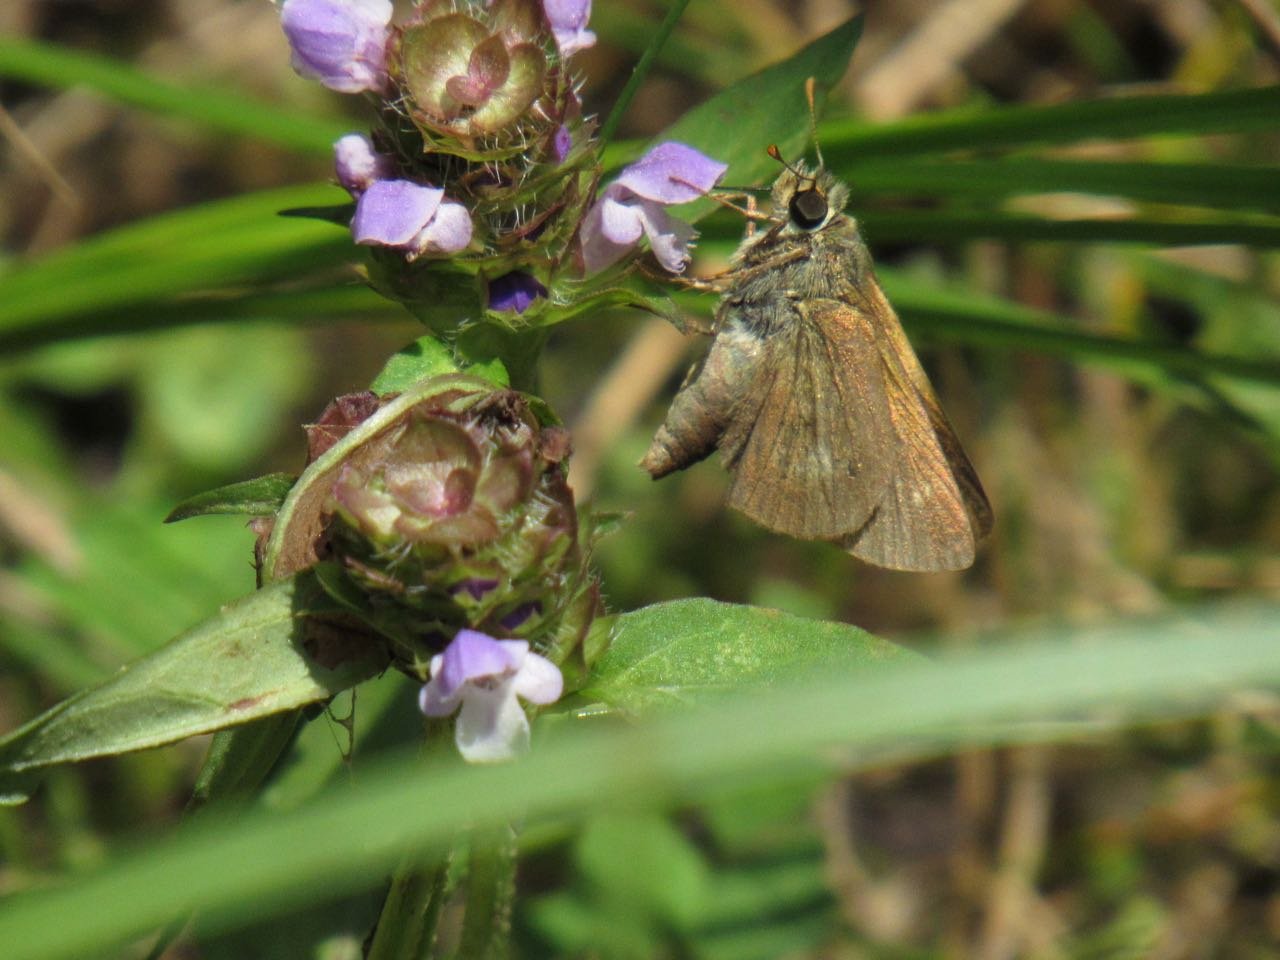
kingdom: Animalia
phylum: Arthropoda
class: Insecta
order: Lepidoptera
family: Hesperiidae
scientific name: Hesperiidae
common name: Skippers
